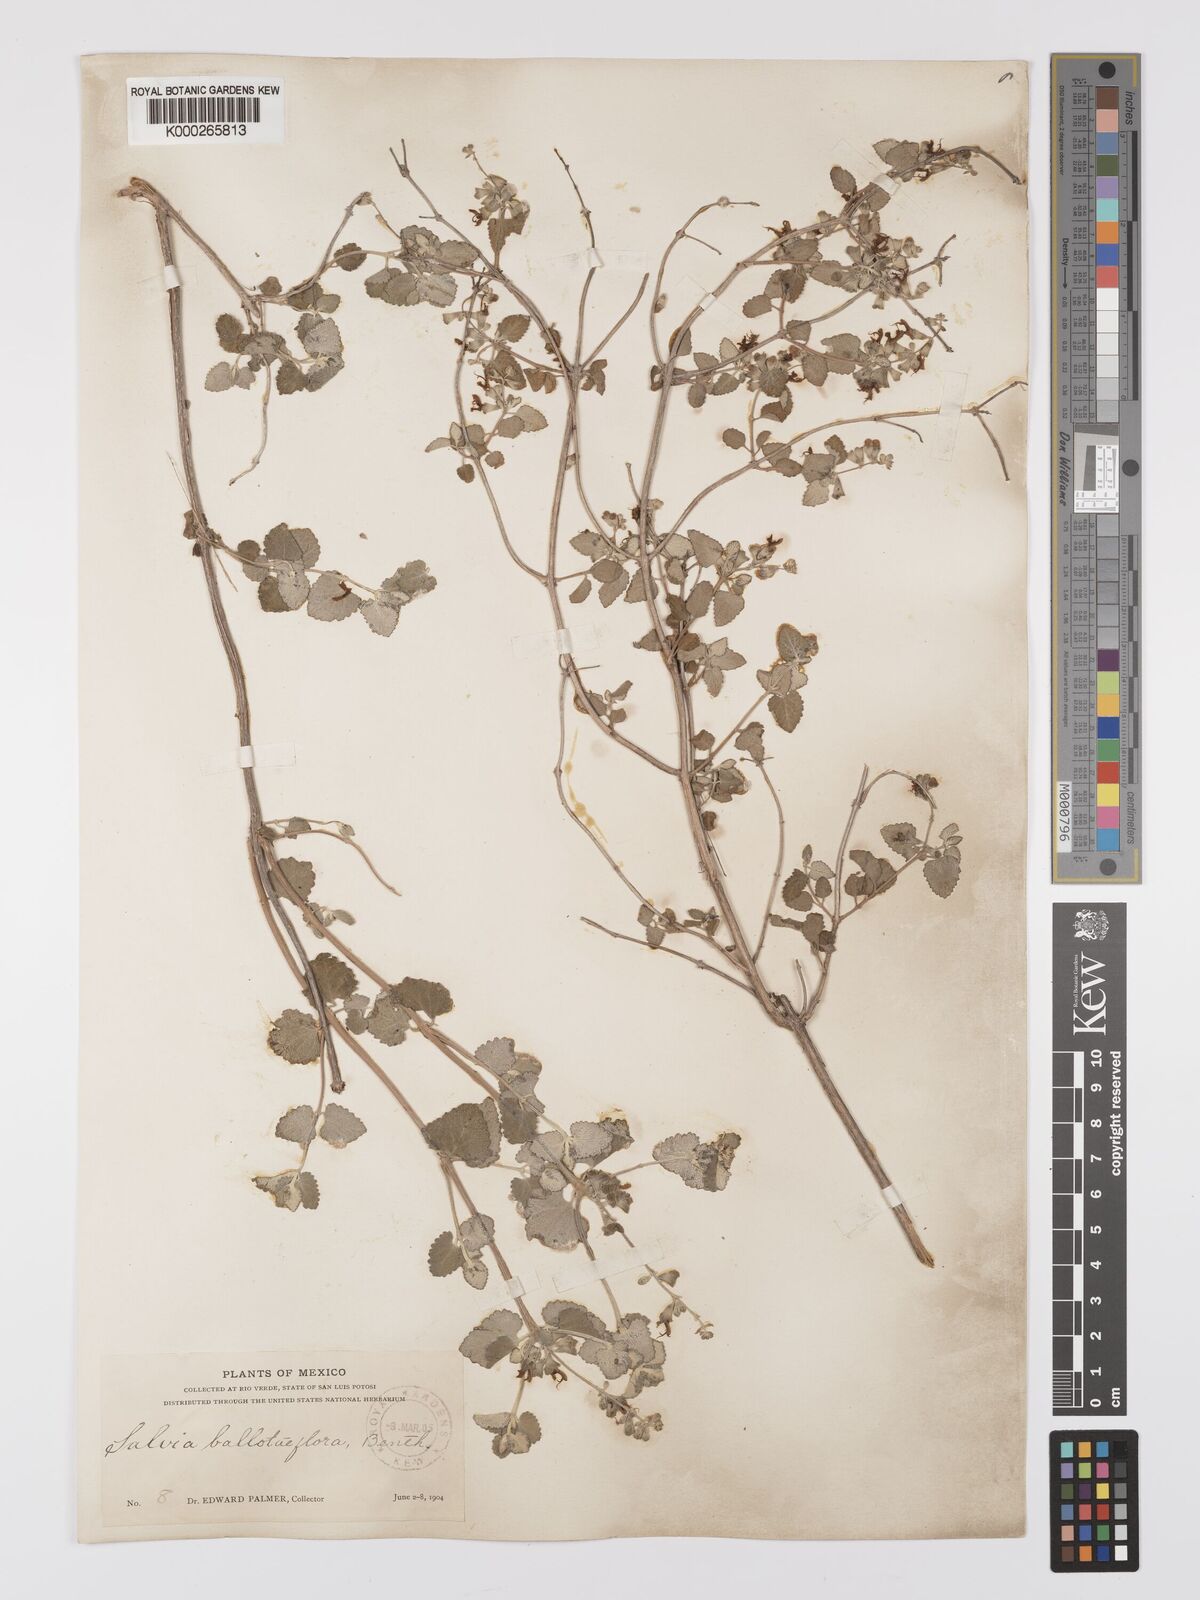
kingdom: Plantae
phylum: Tracheophyta
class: Magnoliopsida
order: Lamiales
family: Lamiaceae
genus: Salvia
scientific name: Salvia ballotiflora
